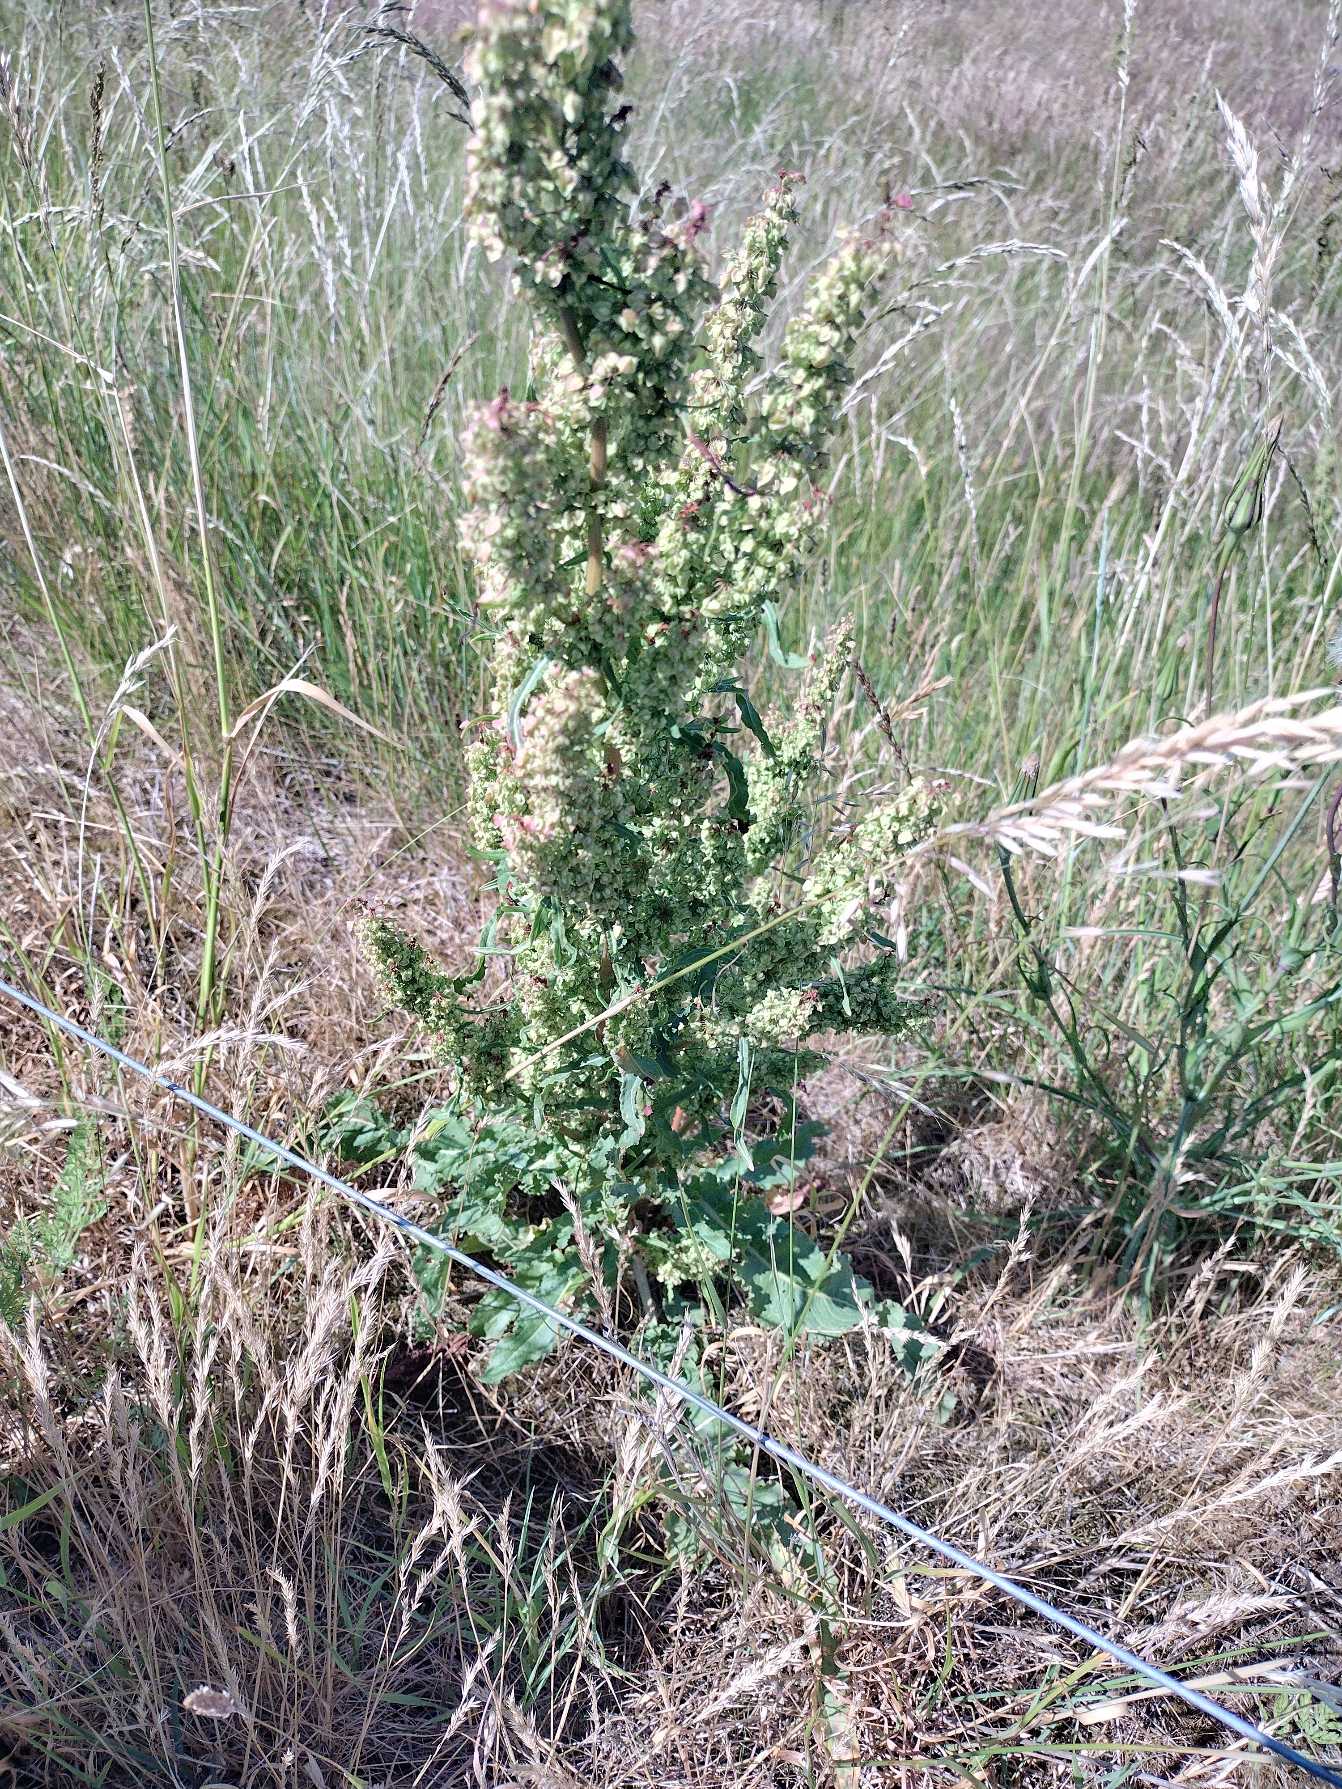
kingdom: Plantae
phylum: Tracheophyta
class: Magnoliopsida
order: Caryophyllales
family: Polygonaceae
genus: Rumex
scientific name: Rumex crispus
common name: Kruset skræppe
